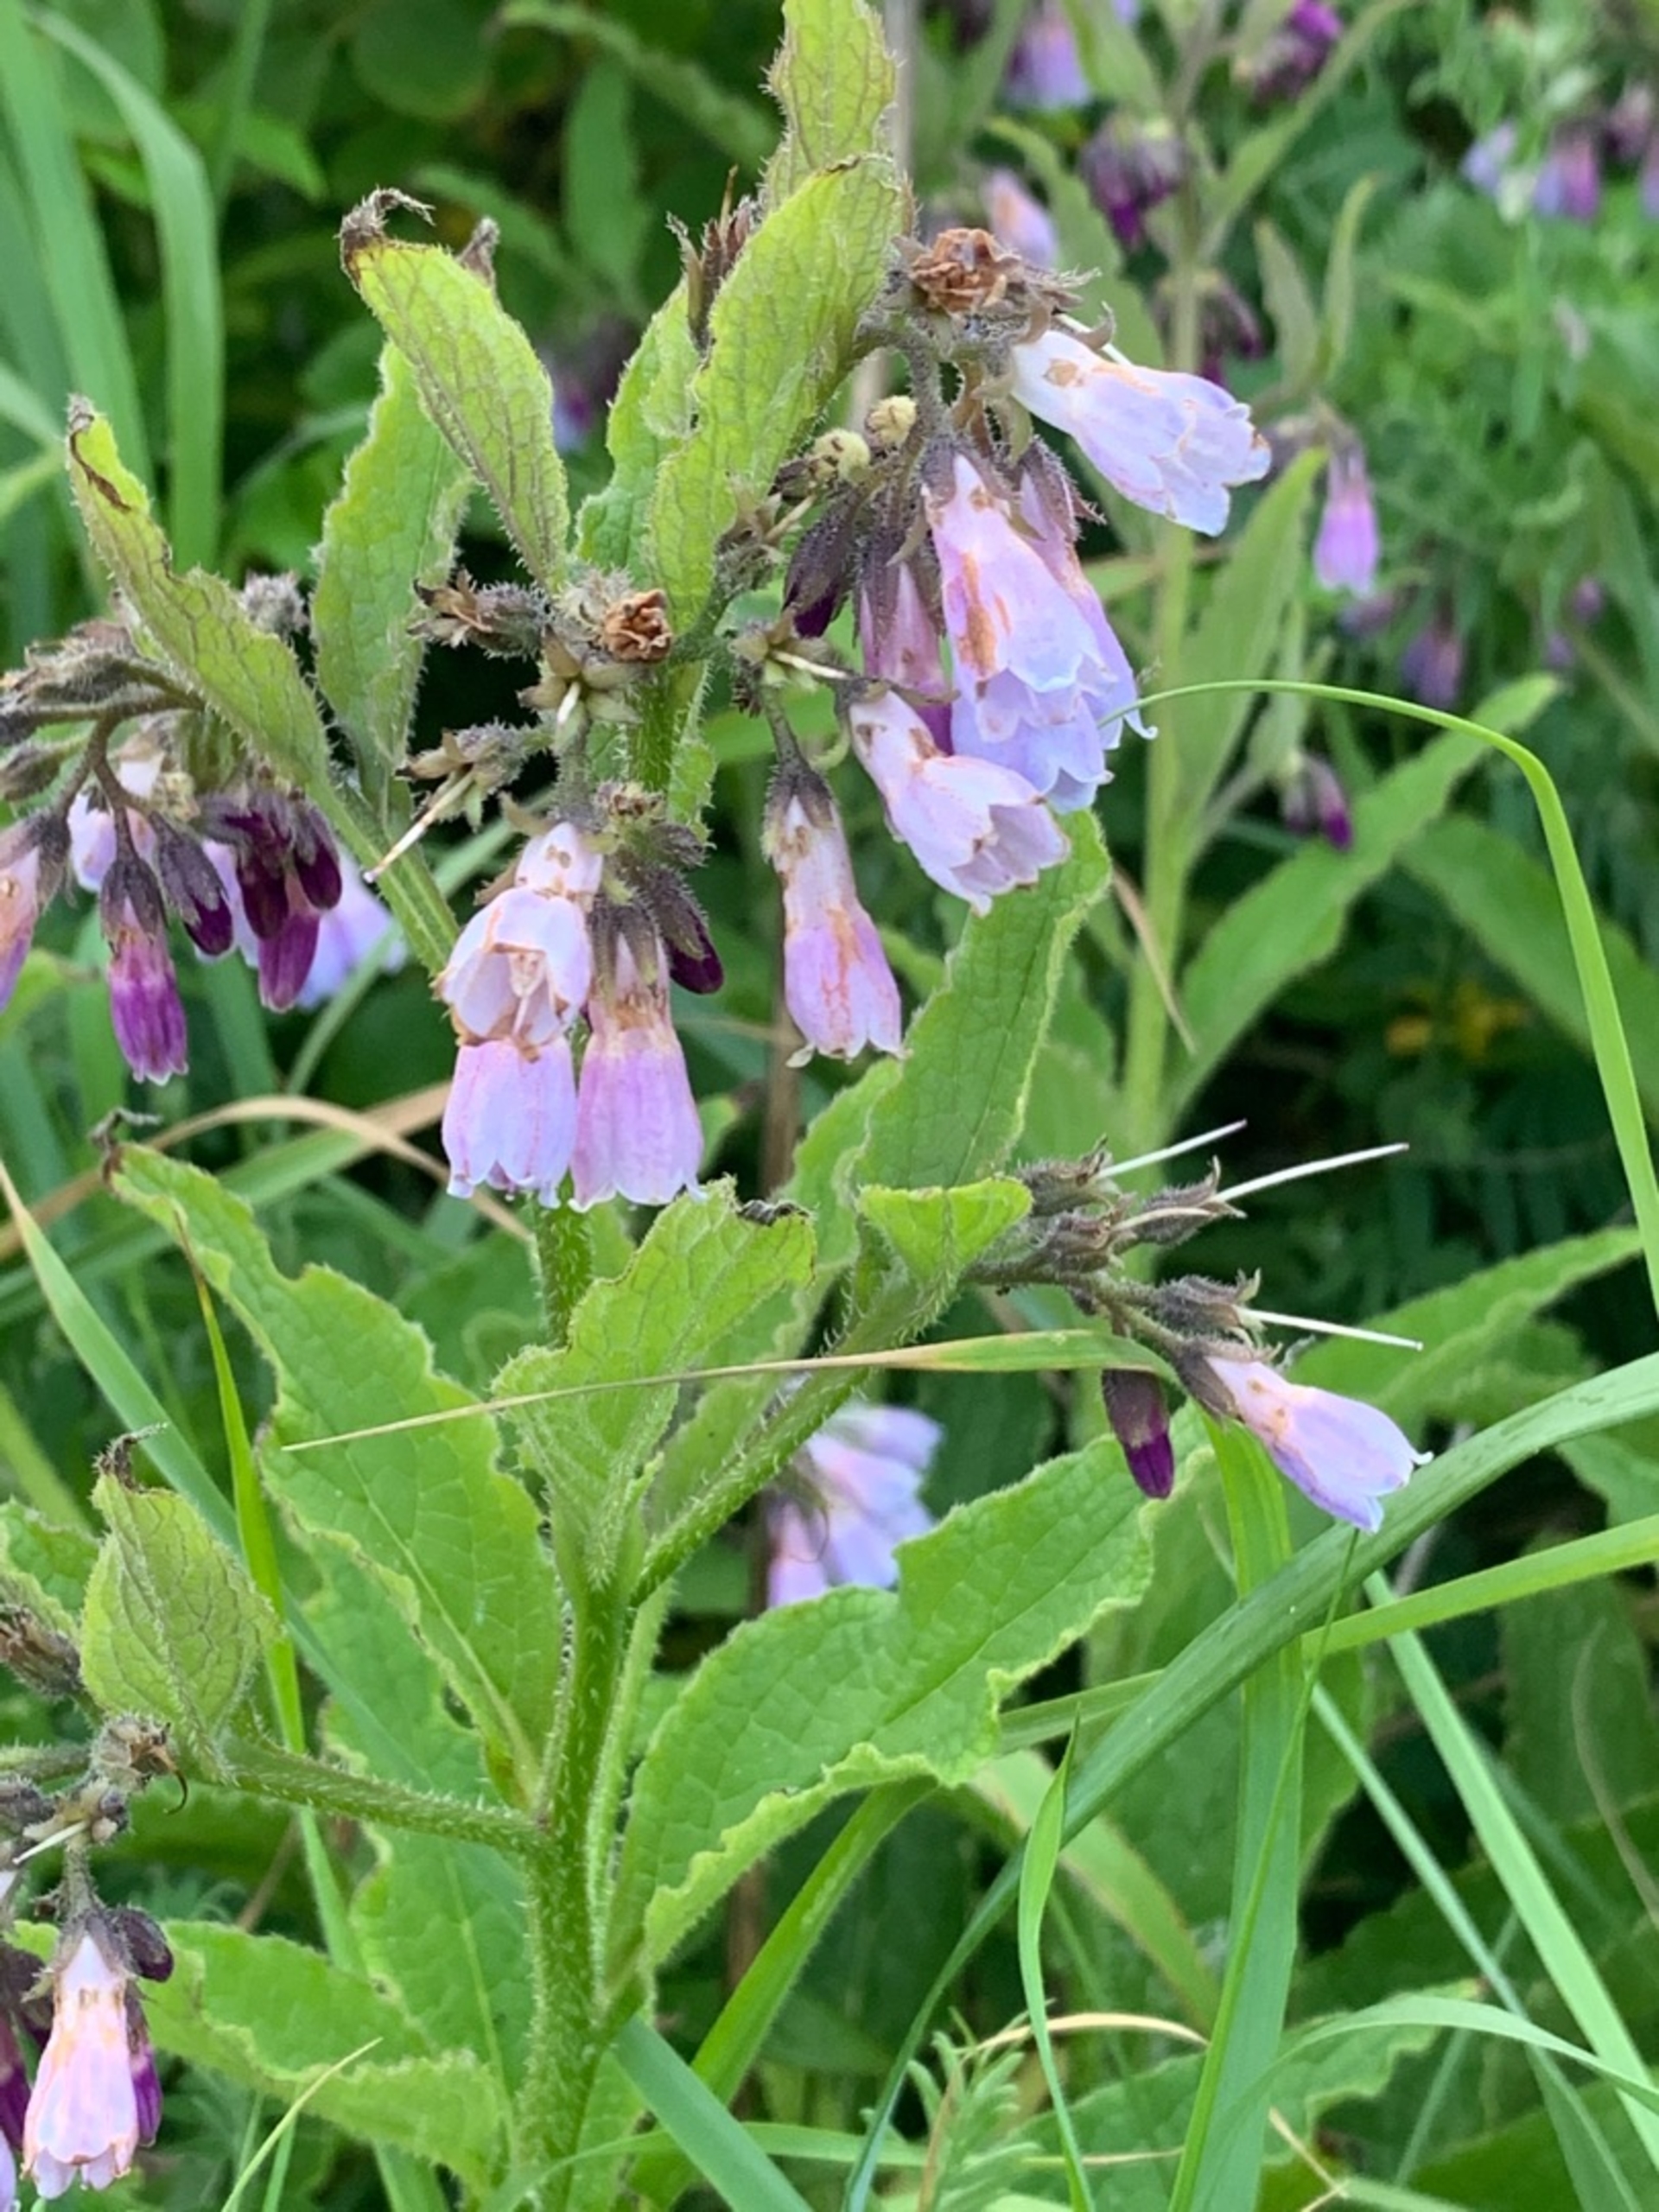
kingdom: Plantae
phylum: Tracheophyta
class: Magnoliopsida
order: Boraginales
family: Boraginaceae
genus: Symphytum
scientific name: Symphytum uplandicum
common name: Foder-kulsukker
